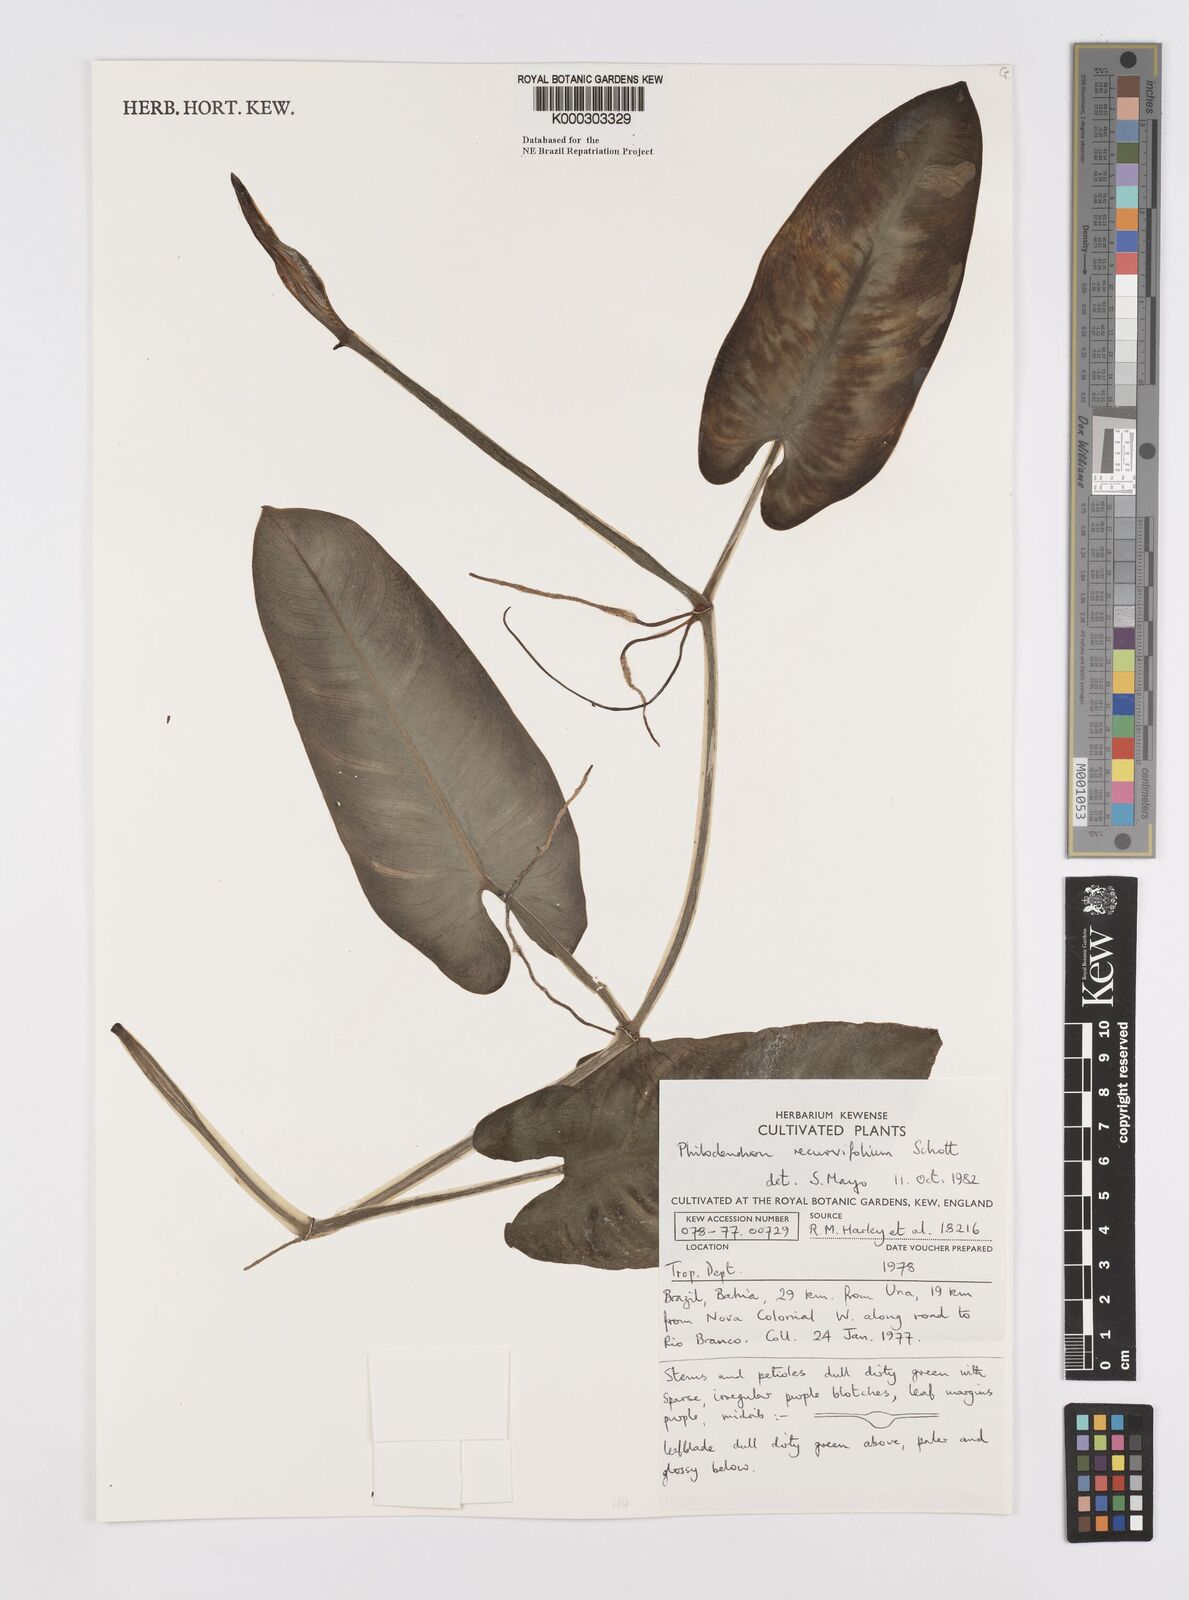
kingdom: Plantae
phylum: Tracheophyta
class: Liliopsida
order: Alismatales
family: Araceae
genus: Philodendron
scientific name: Philodendron recurvifolium
